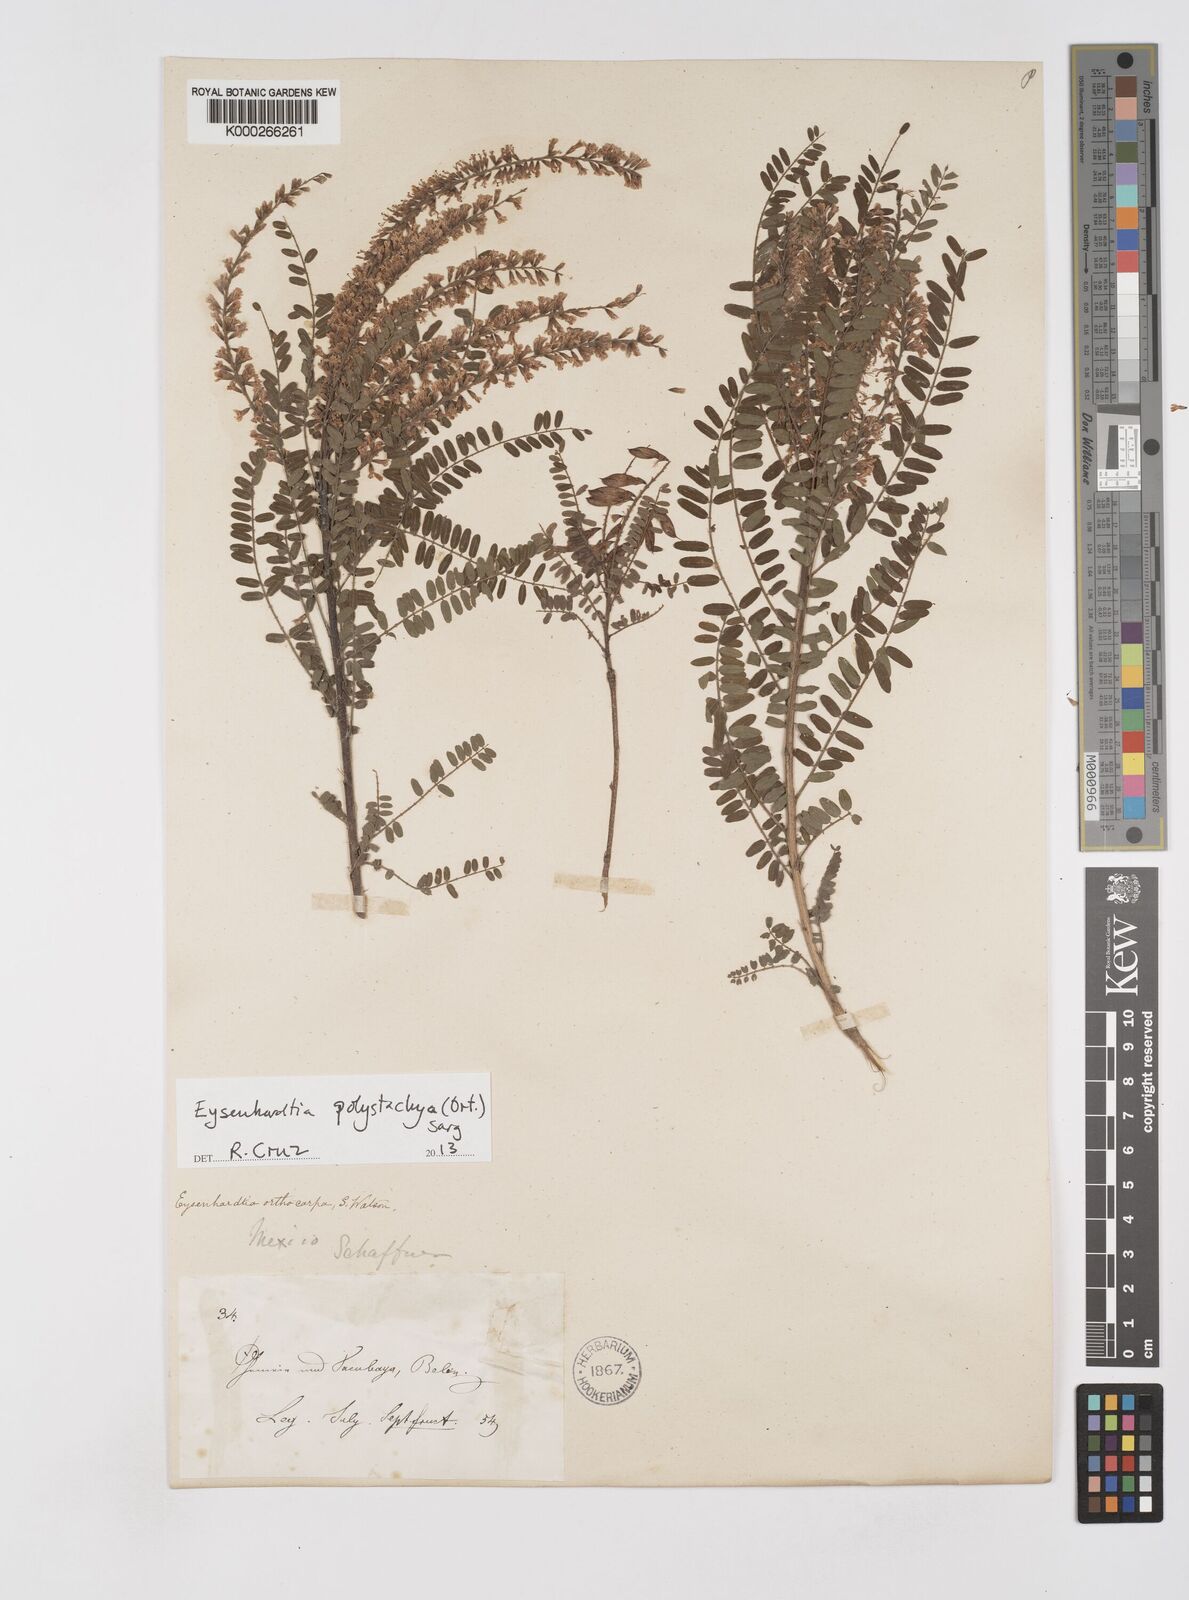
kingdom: Plantae
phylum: Tracheophyta
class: Magnoliopsida
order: Fabales
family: Fabaceae
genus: Eysenhardtia
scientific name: Eysenhardtia polystachya
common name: Kidneywood
